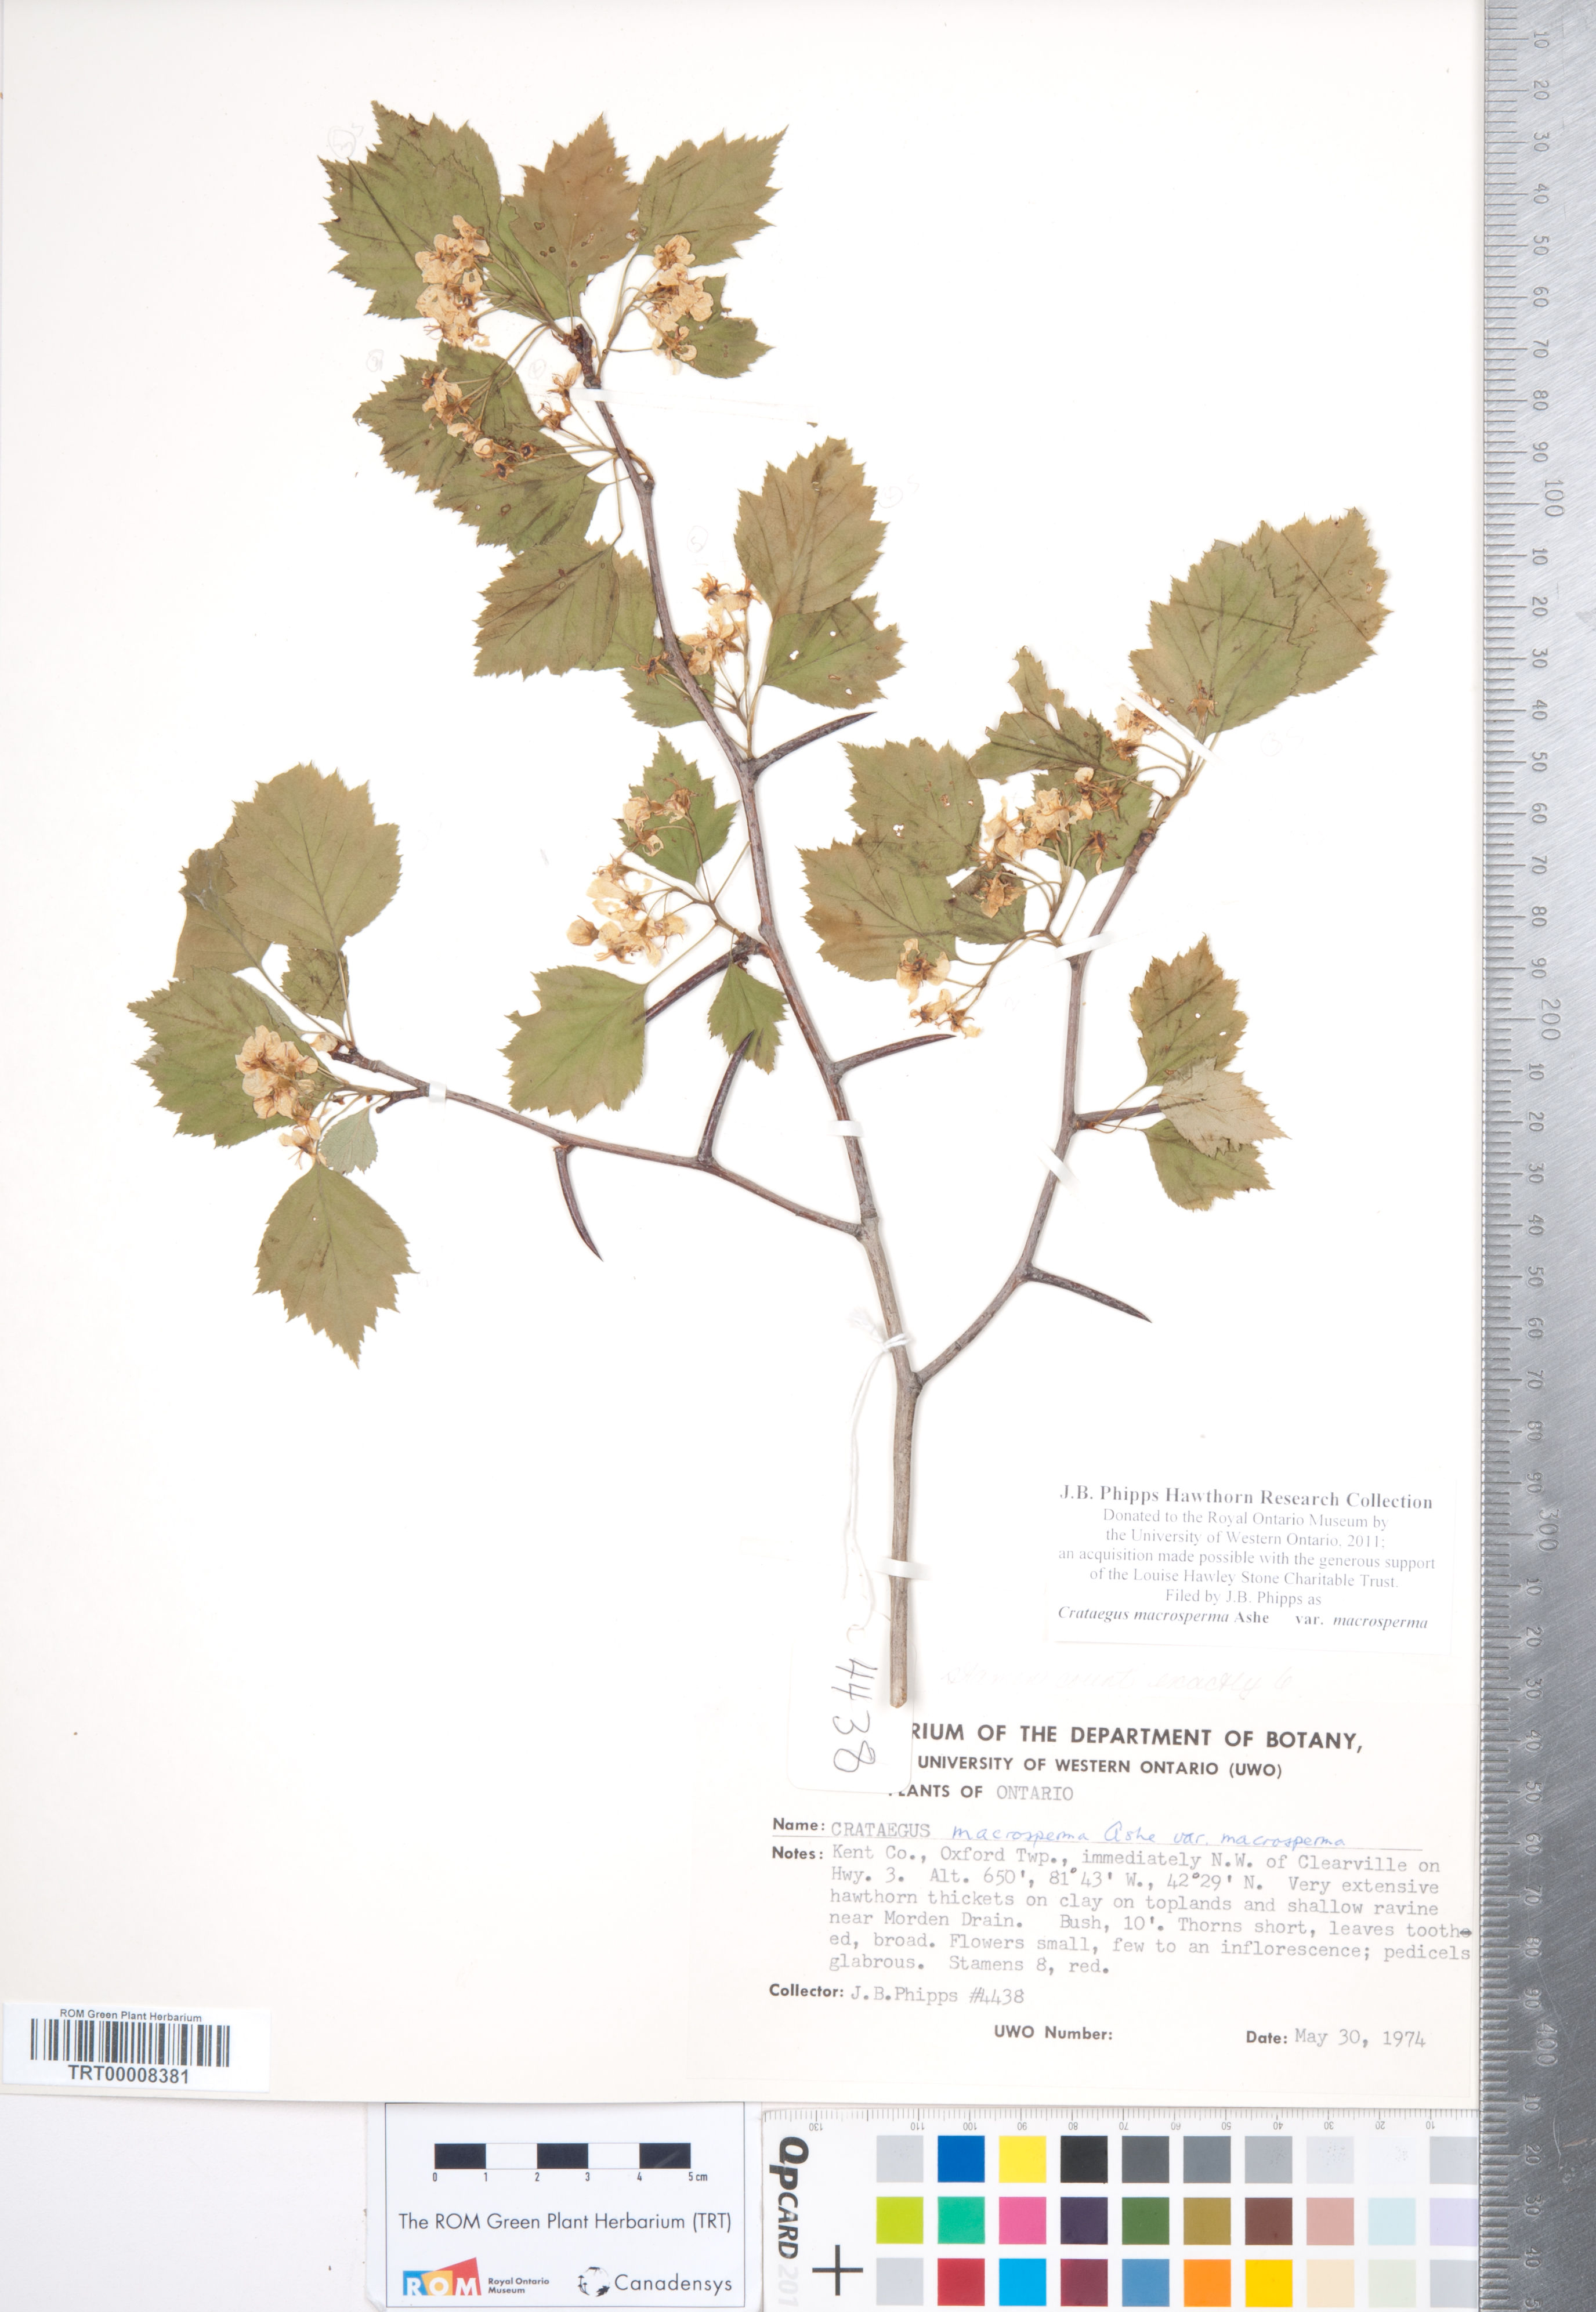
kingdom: Plantae
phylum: Tracheophyta
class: Magnoliopsida
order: Rosales
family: Rosaceae
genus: Crataegus
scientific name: Crataegus macrosperma
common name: Variable hawthorn
